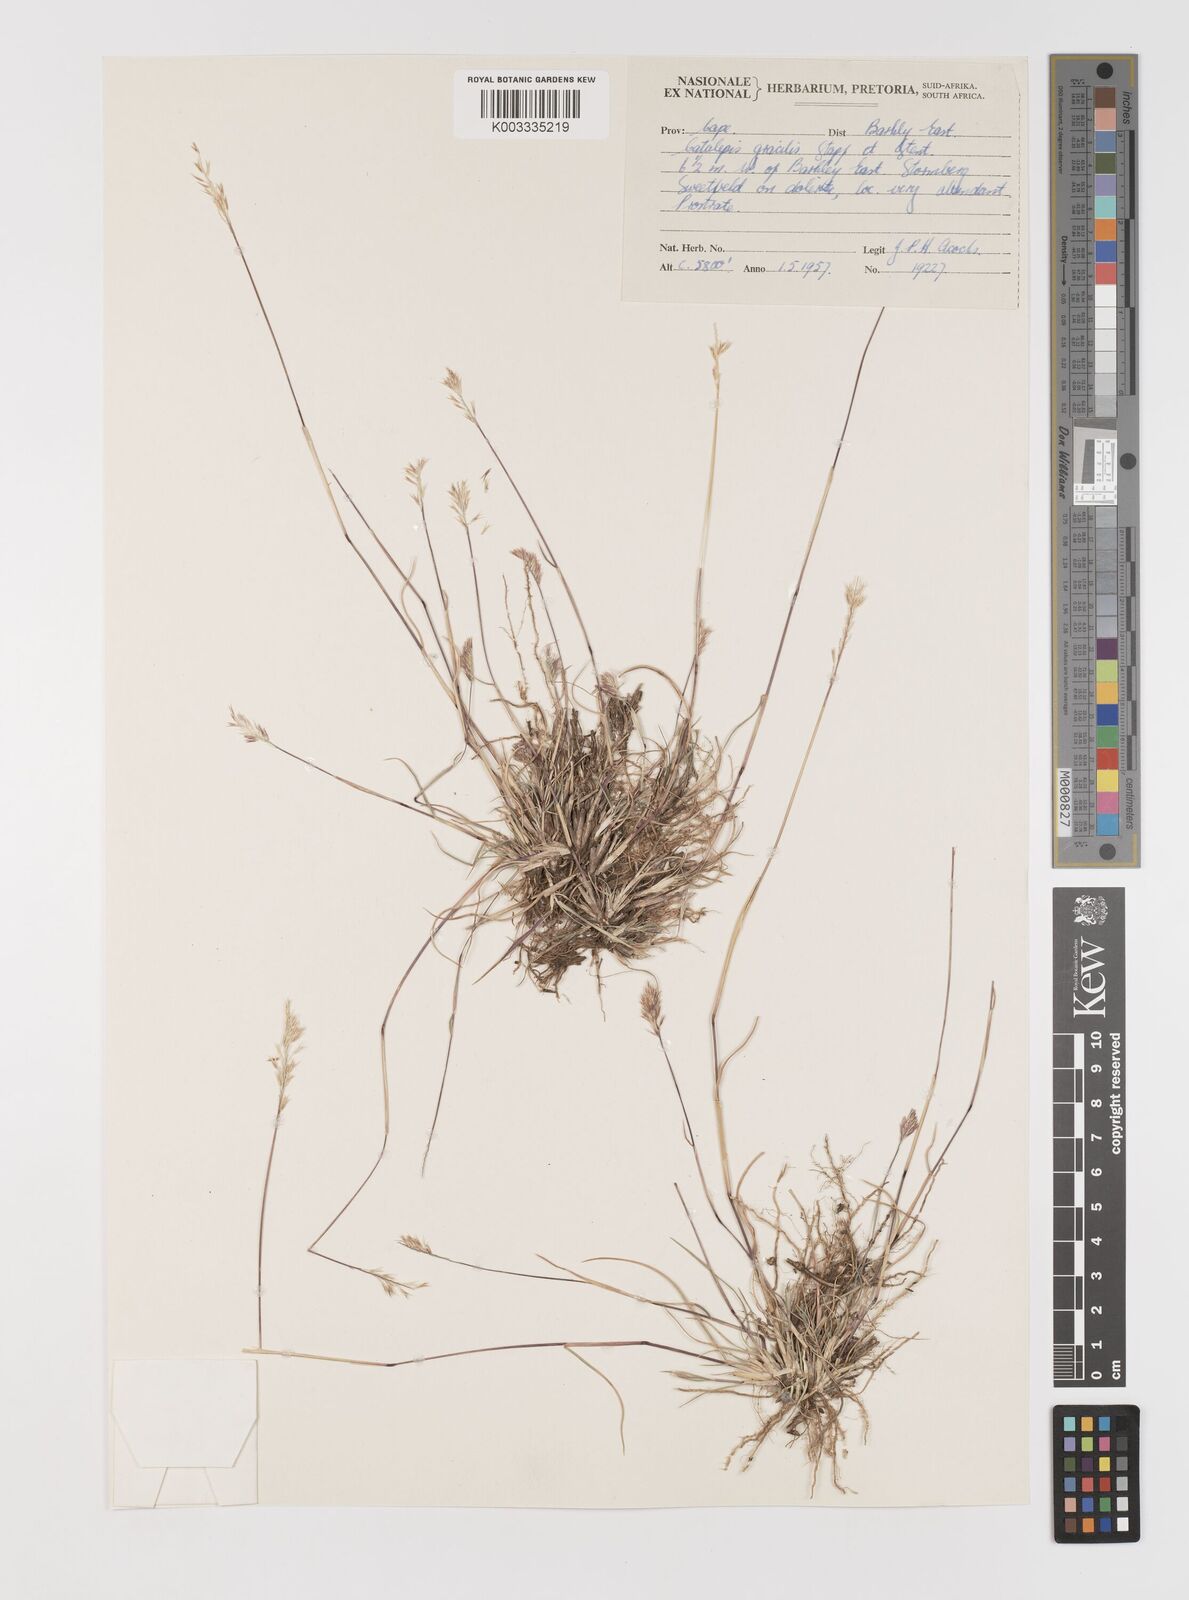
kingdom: Plantae
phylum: Tracheophyta
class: Liliopsida
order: Poales
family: Poaceae
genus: Catalepis
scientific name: Catalepis gracilis
